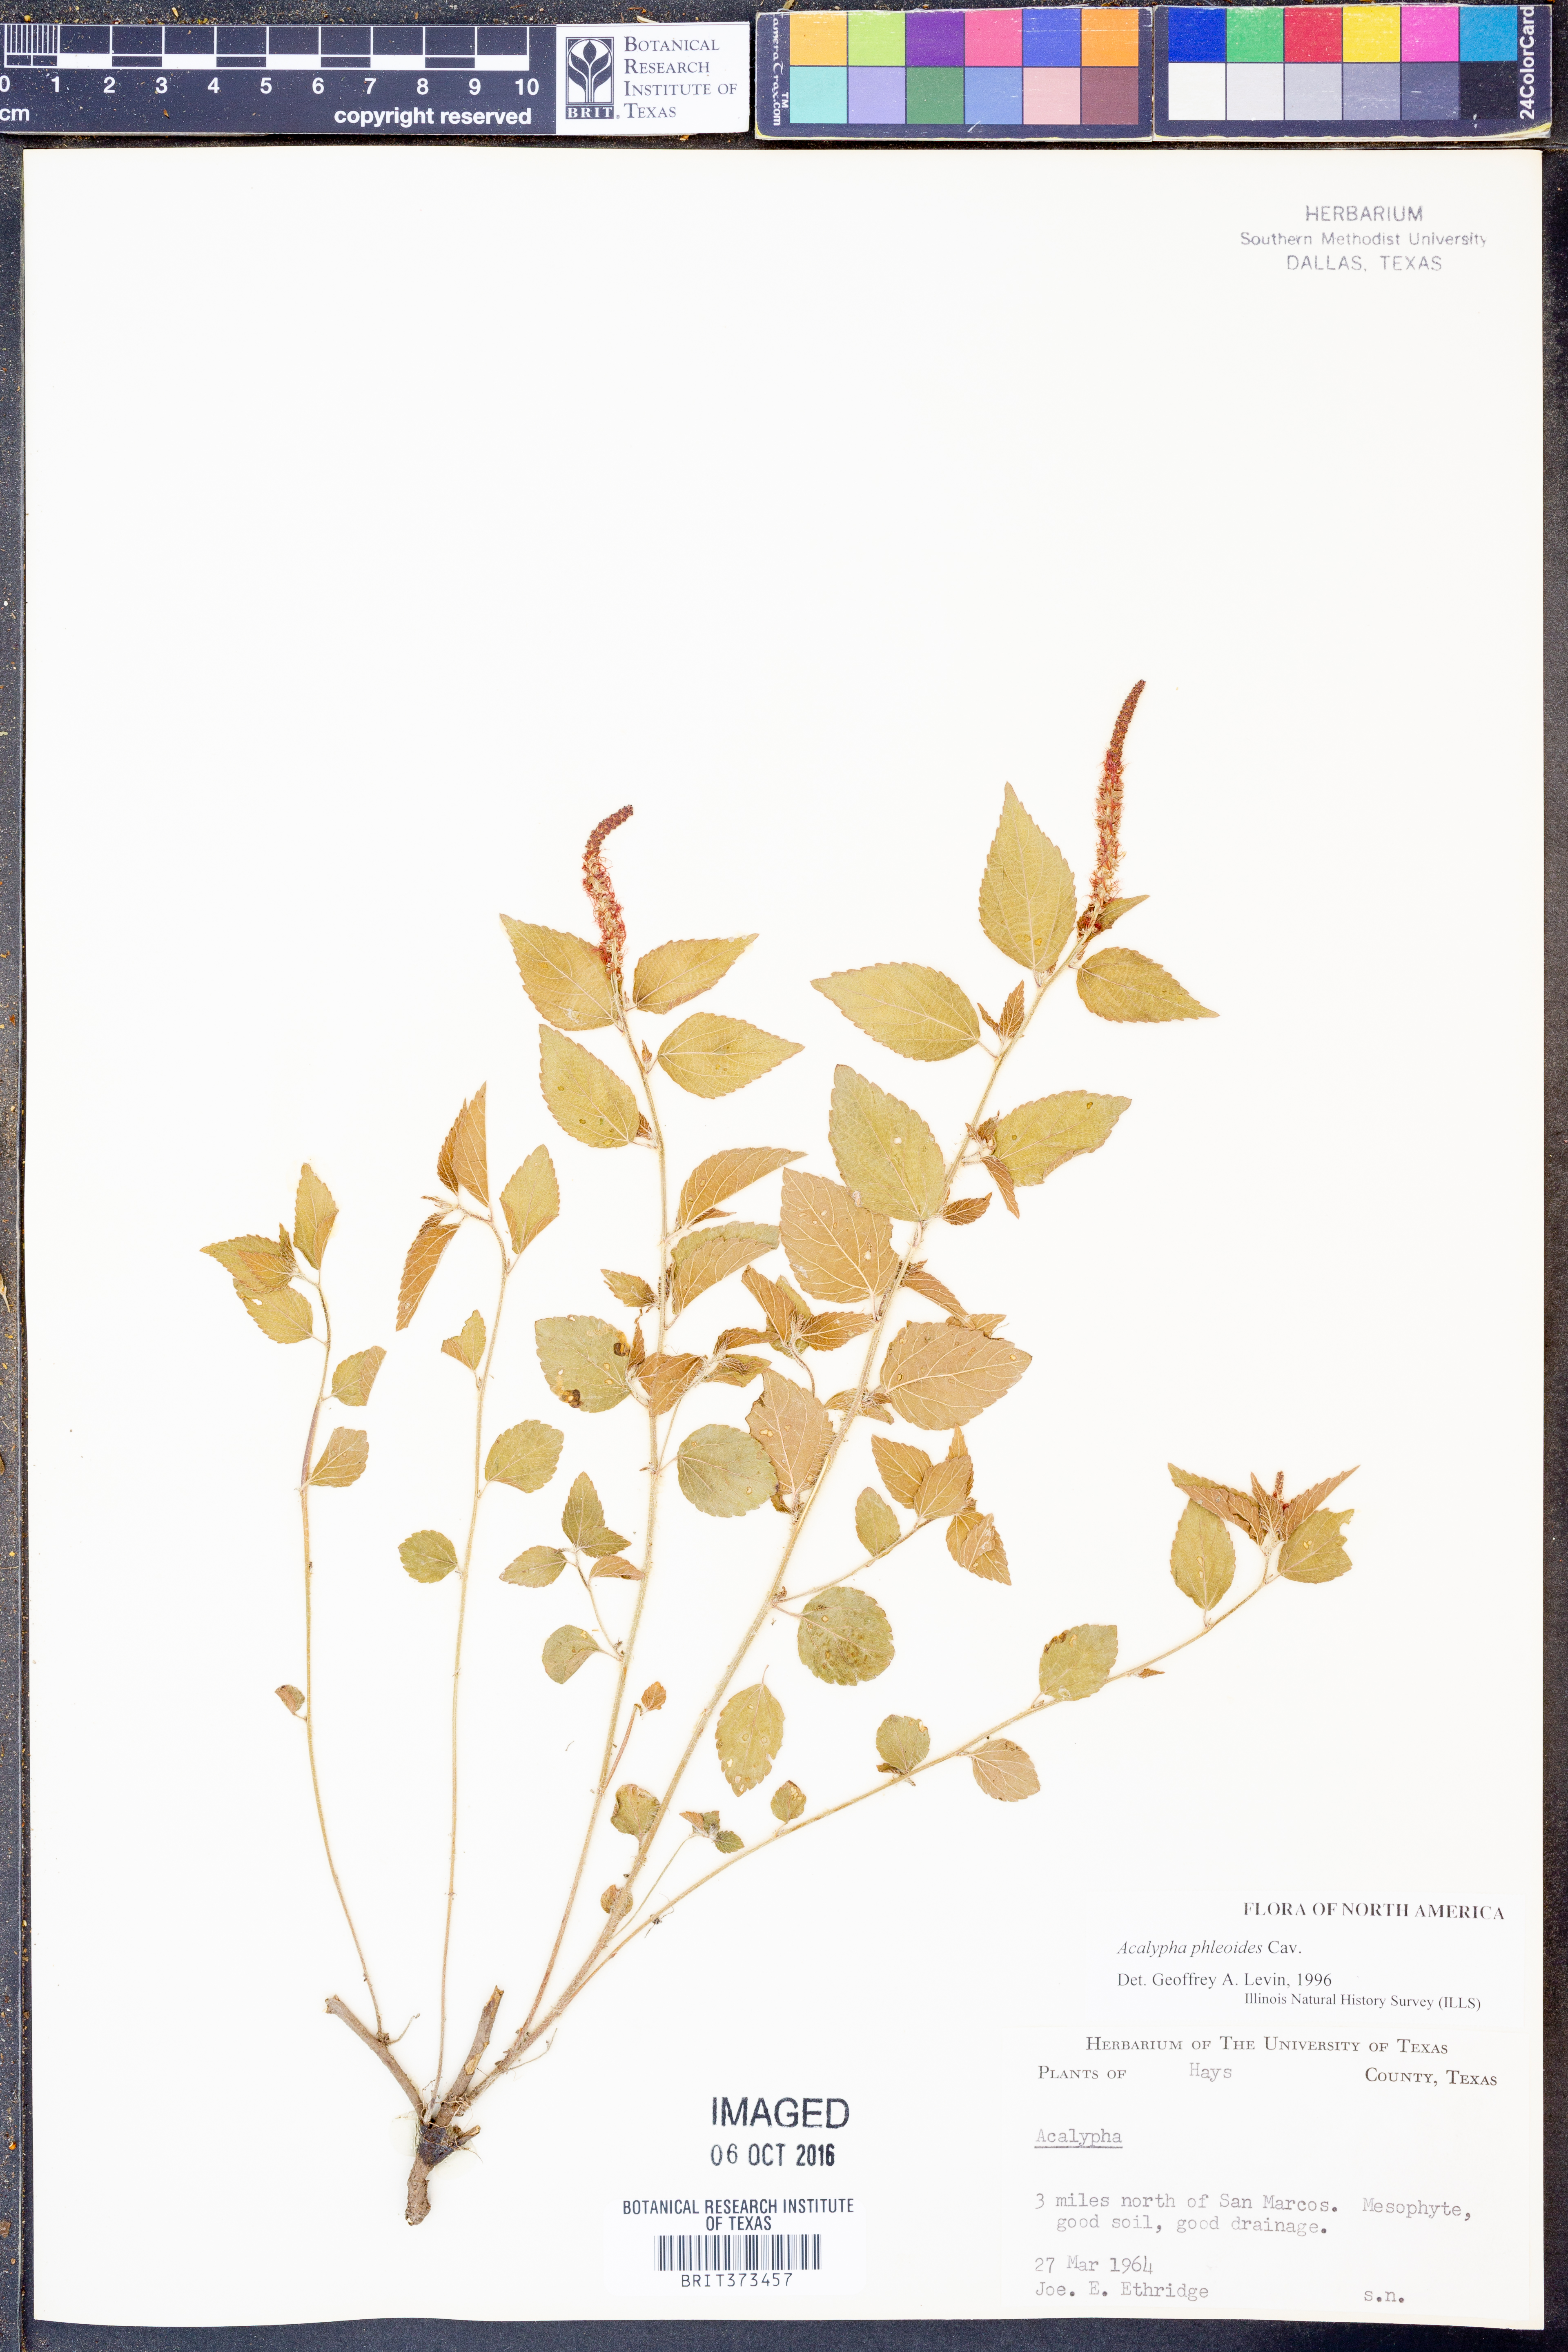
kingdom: Plantae
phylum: Tracheophyta
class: Magnoliopsida
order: Malpighiales
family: Euphorbiaceae
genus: Acalypha
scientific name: Acalypha phleoides
